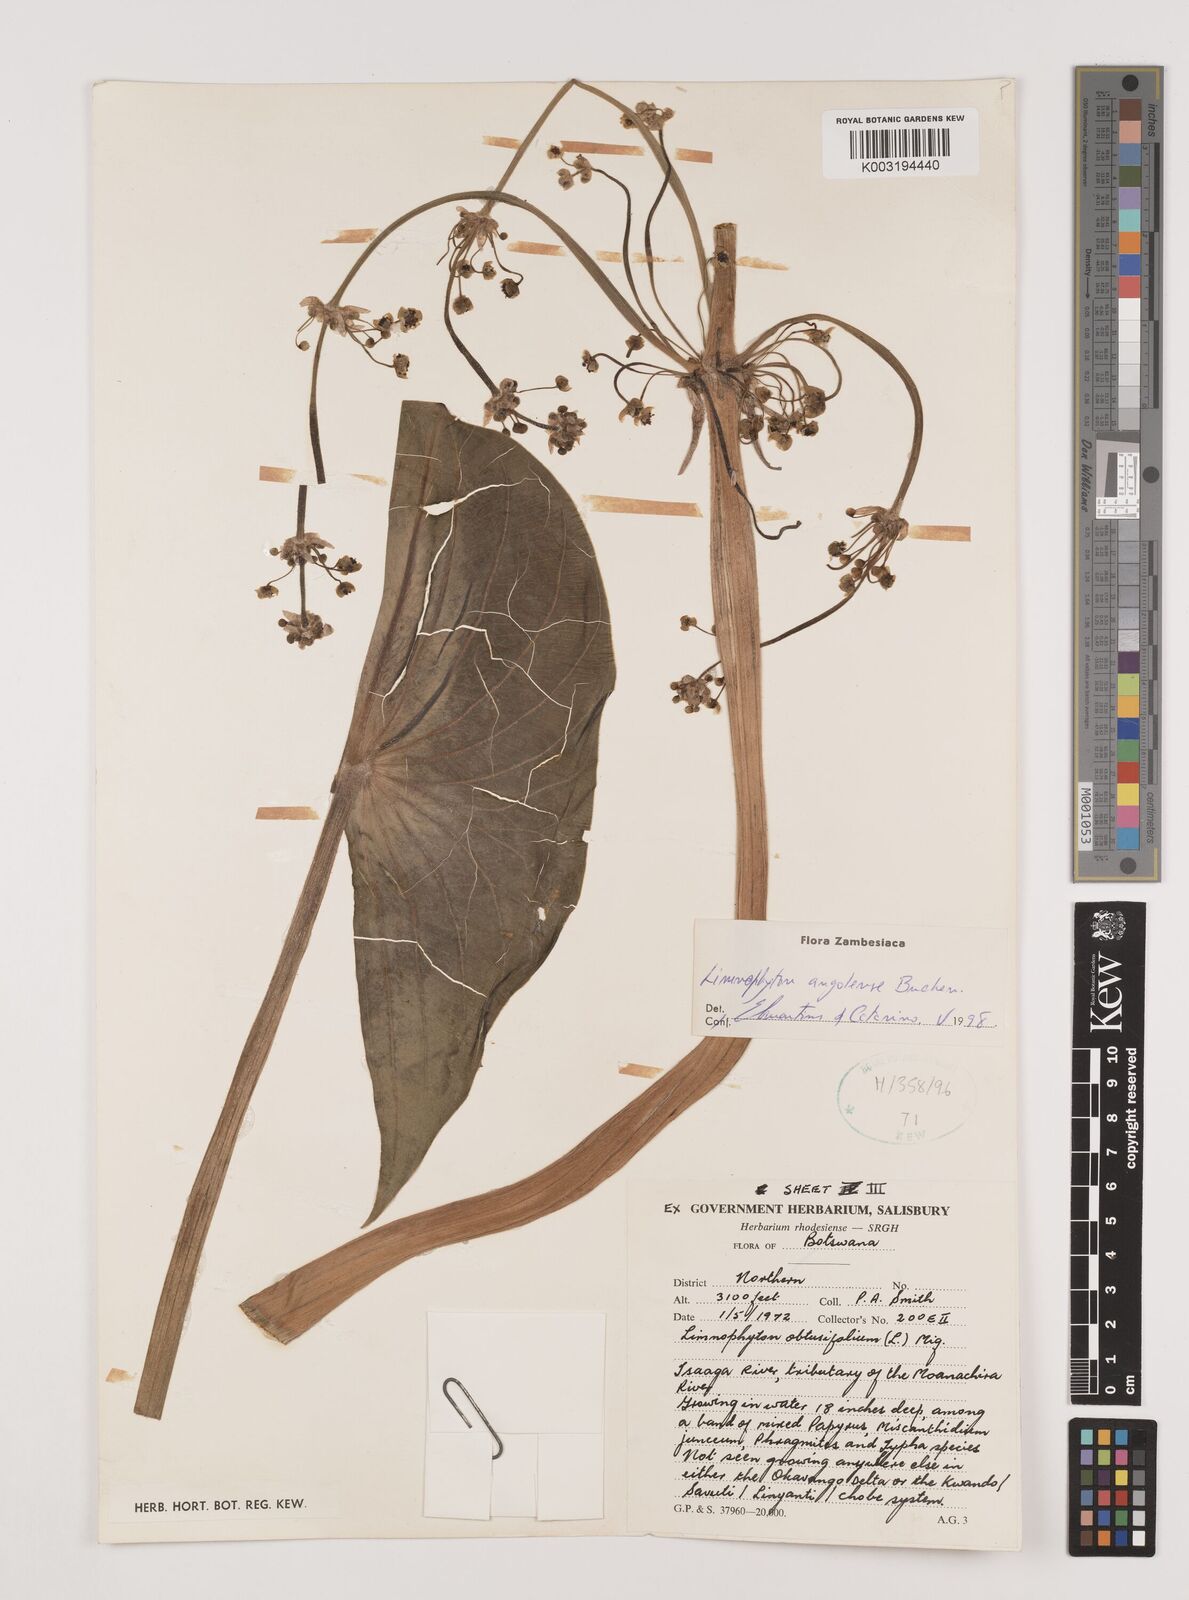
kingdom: Plantae
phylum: Tracheophyta
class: Liliopsida
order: Alismatales
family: Alismataceae
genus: Limnophyton
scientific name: Limnophyton angolense
